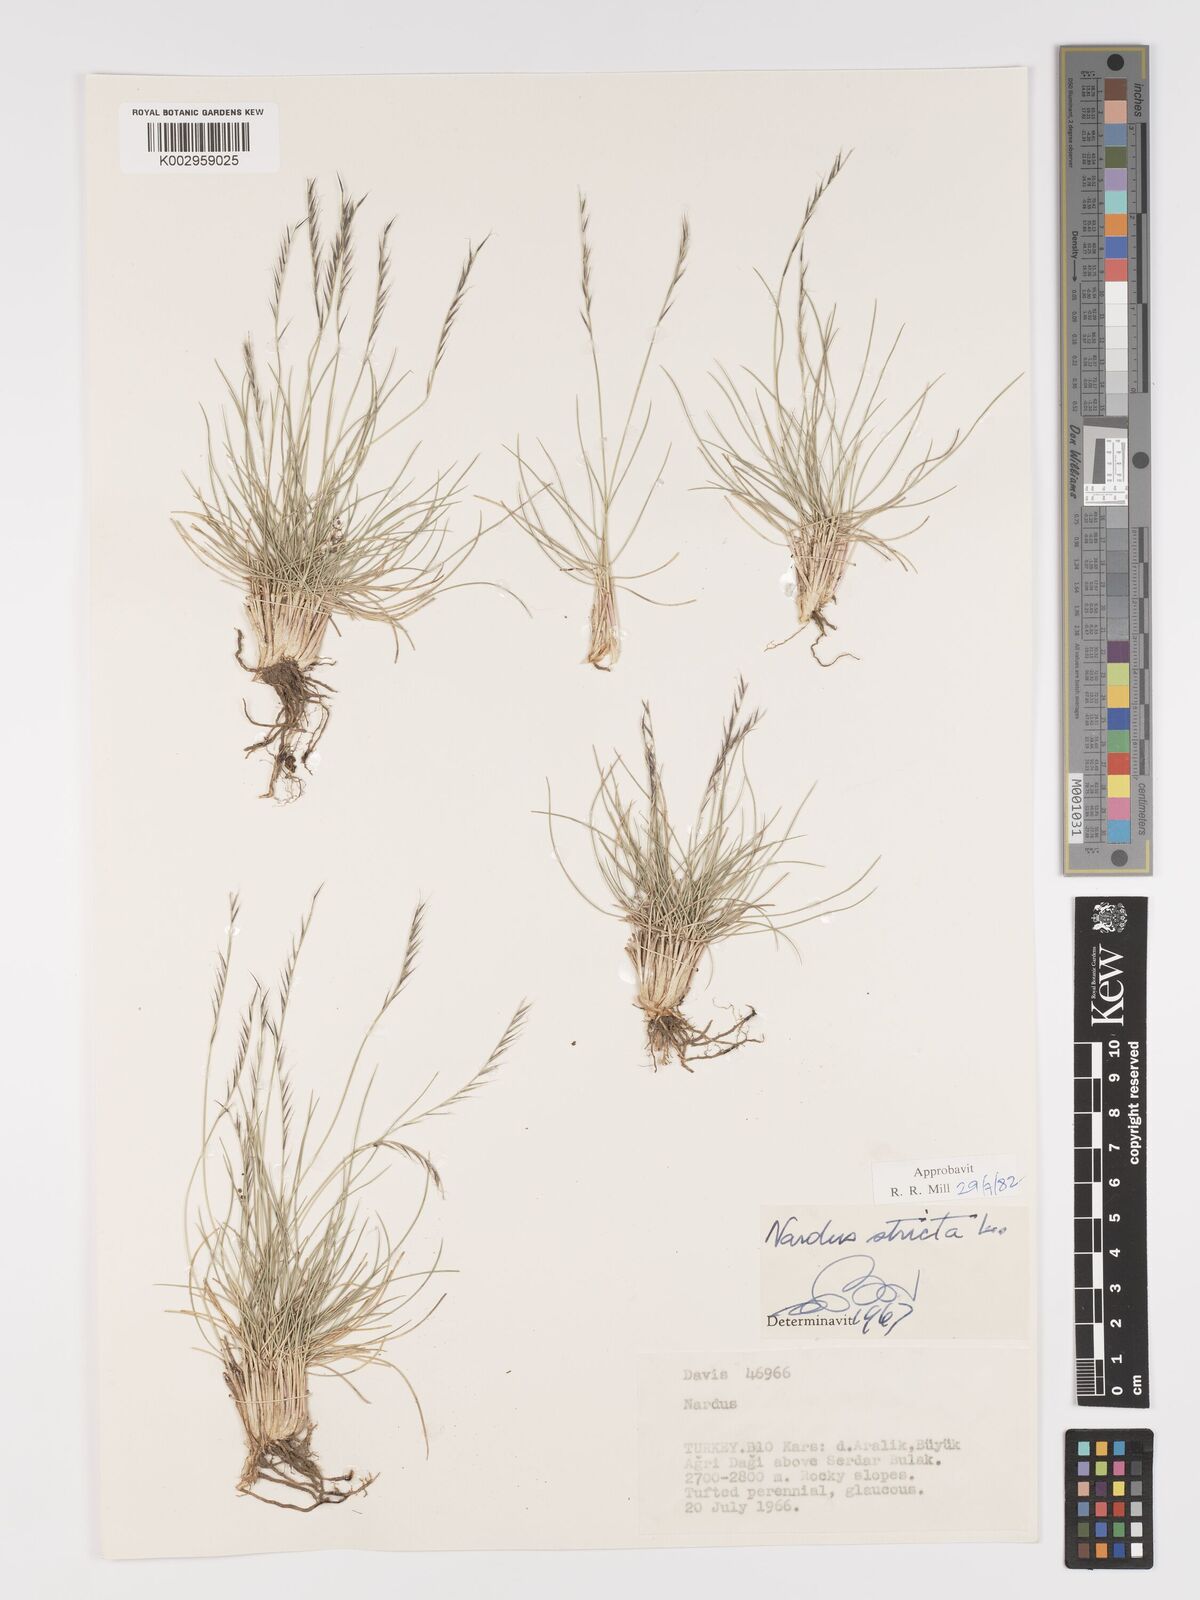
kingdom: Plantae
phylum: Tracheophyta
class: Liliopsida
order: Poales
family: Poaceae
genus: Nardus
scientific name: Nardus stricta
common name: Mat-grass
